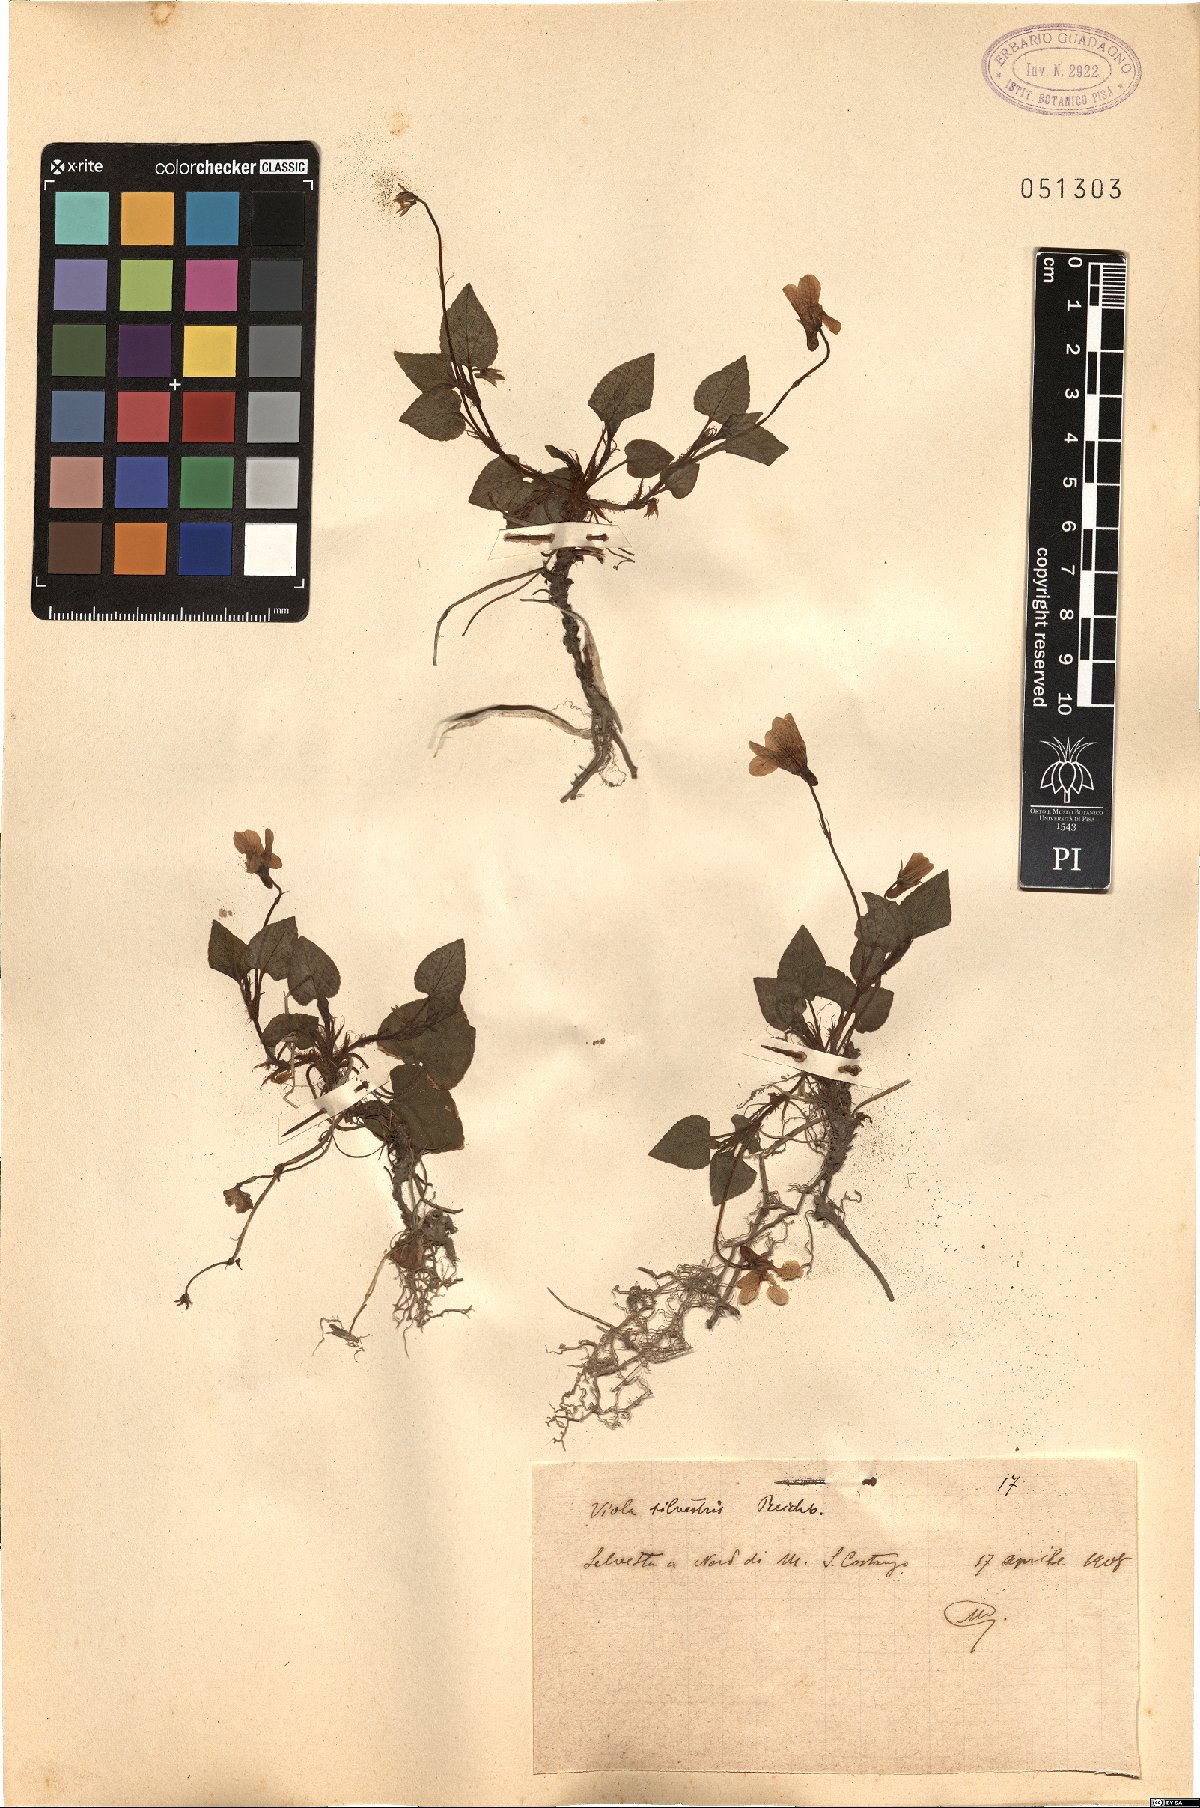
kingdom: Plantae
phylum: Tracheophyta
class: Magnoliopsida
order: Malpighiales
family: Violaceae
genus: Viola
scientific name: Viola canina
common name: Heath dog-violet
